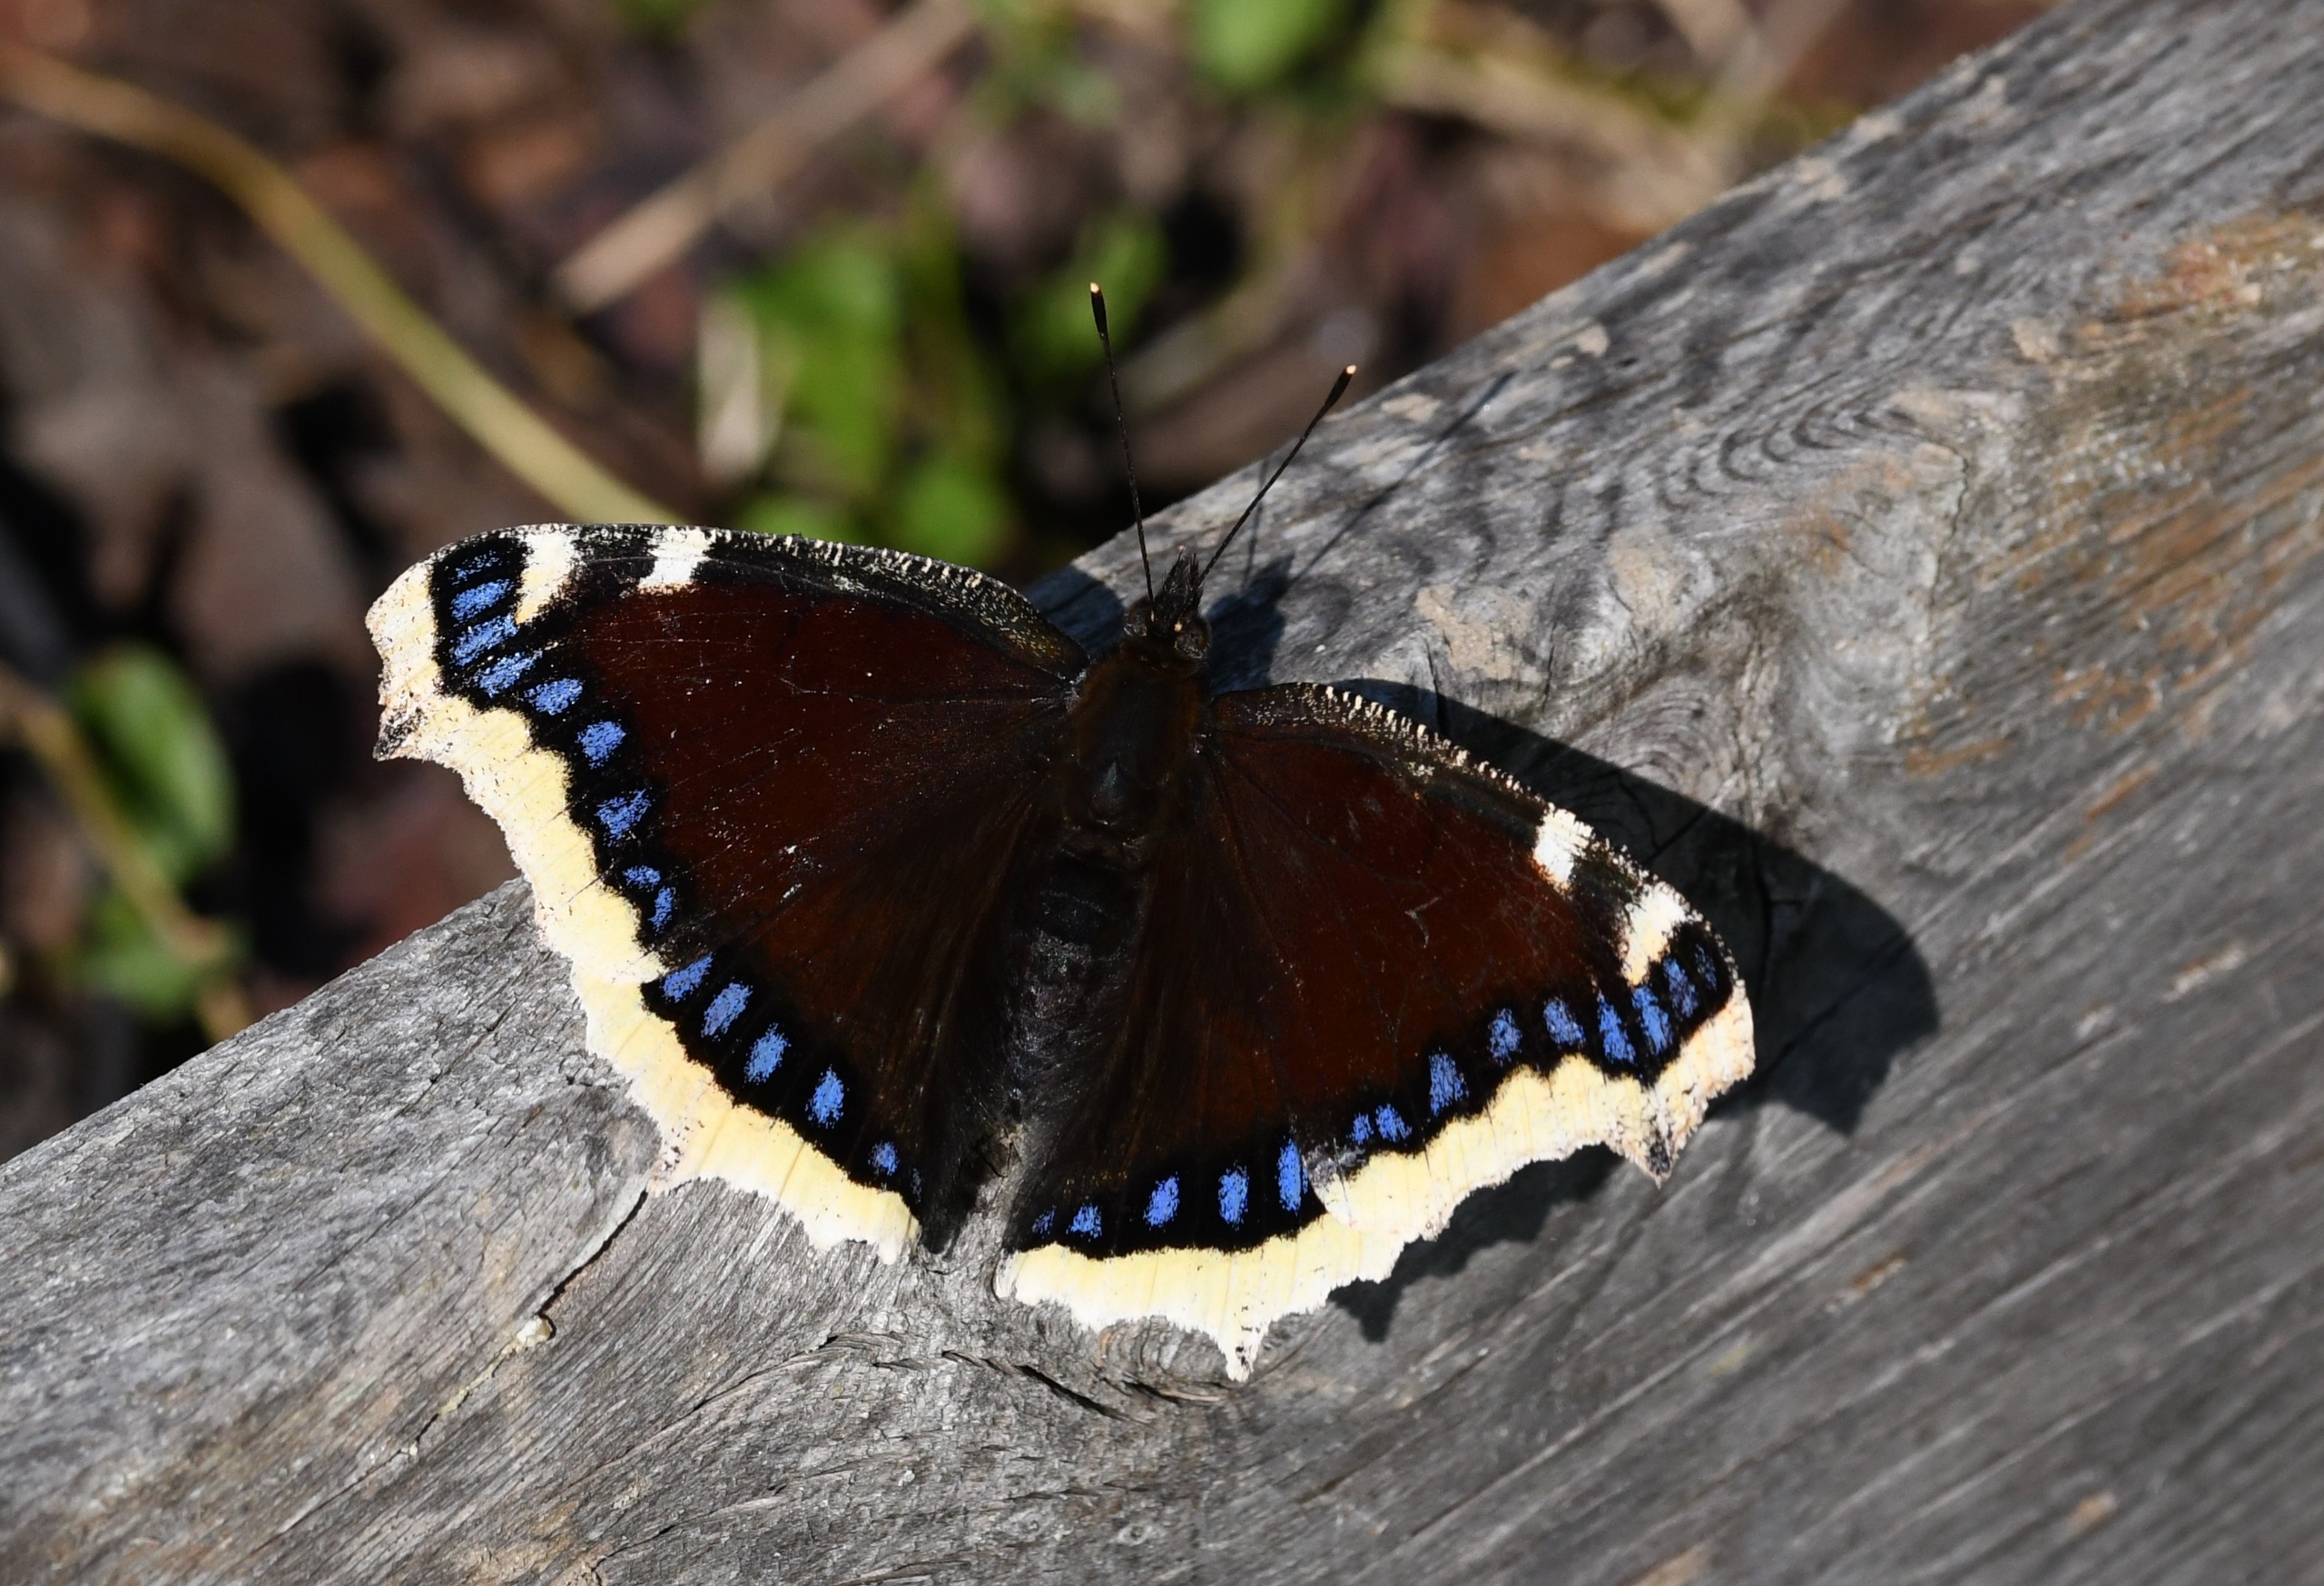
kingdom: Animalia
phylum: Arthropoda
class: Insecta
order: Lepidoptera
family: Nymphalidae
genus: Nymphalis
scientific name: Nymphalis antiopa
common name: Sørgekåbe
